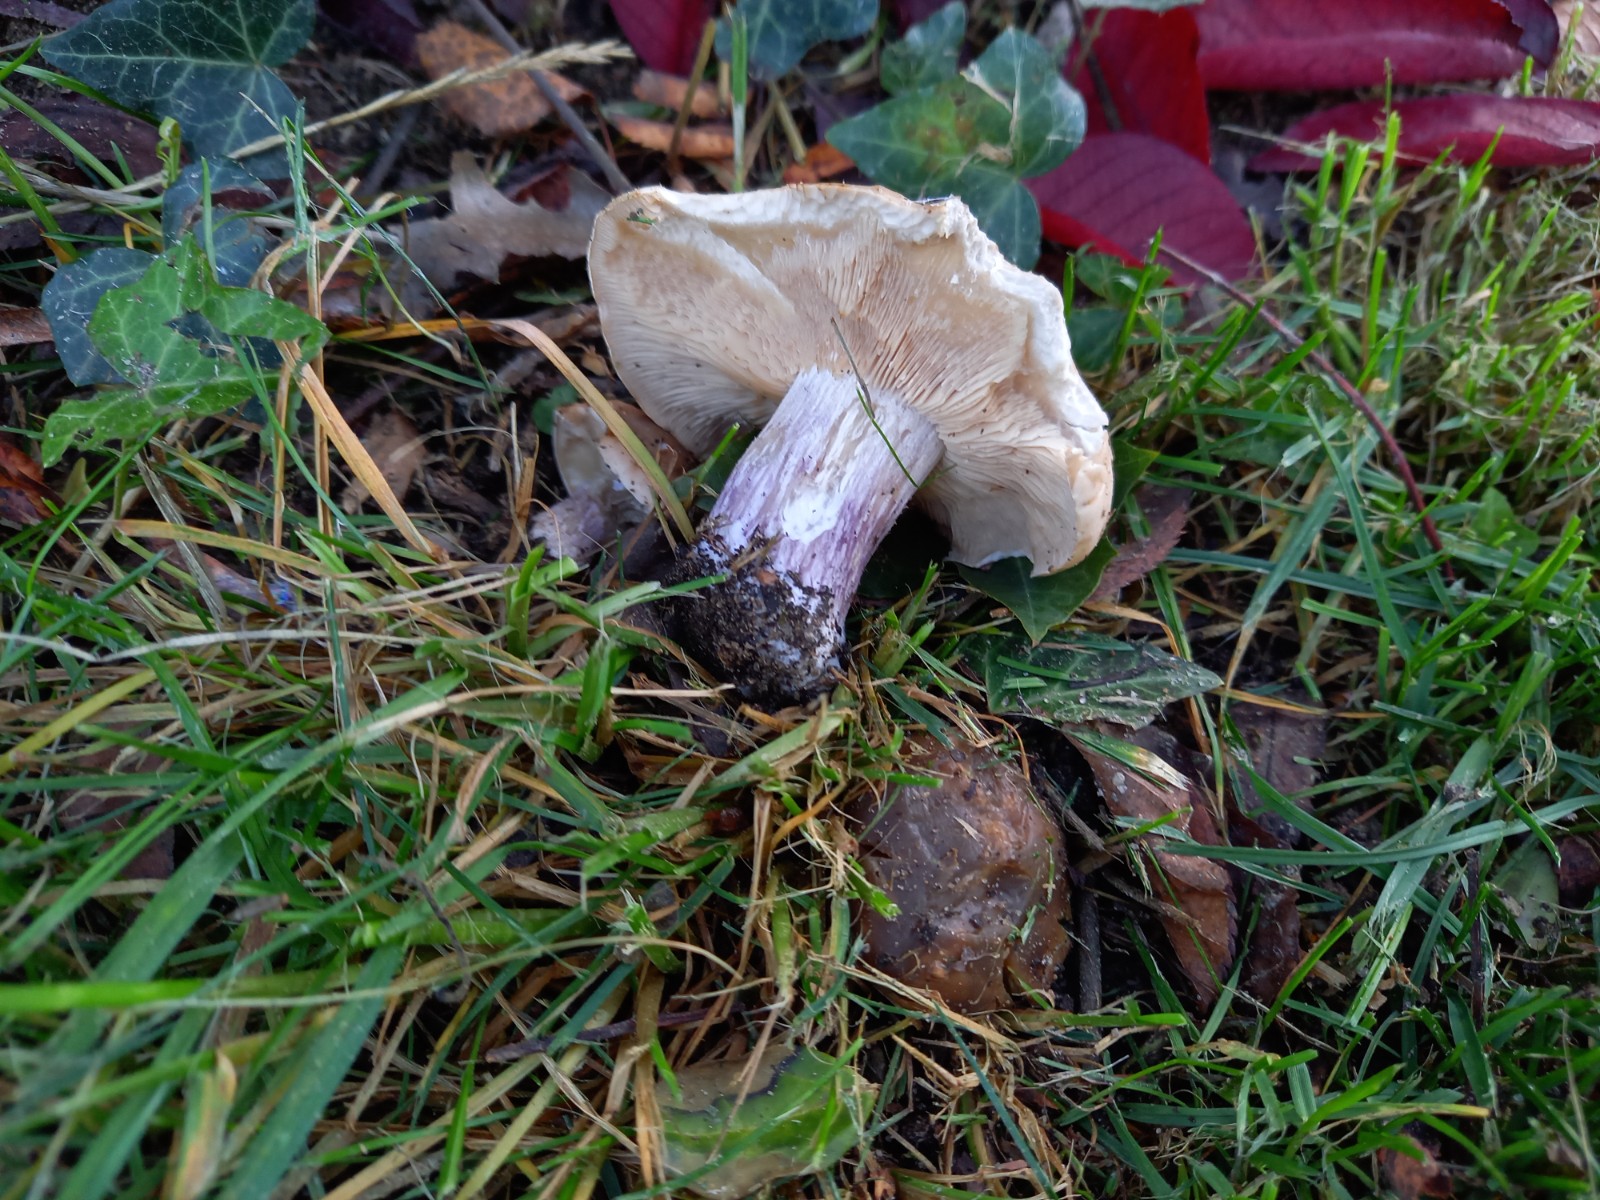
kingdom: Fungi
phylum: Basidiomycota
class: Agaricomycetes
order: Agaricales
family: Tricholomataceae
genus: Lepista
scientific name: Lepista personata
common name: bleg hekseringshat
